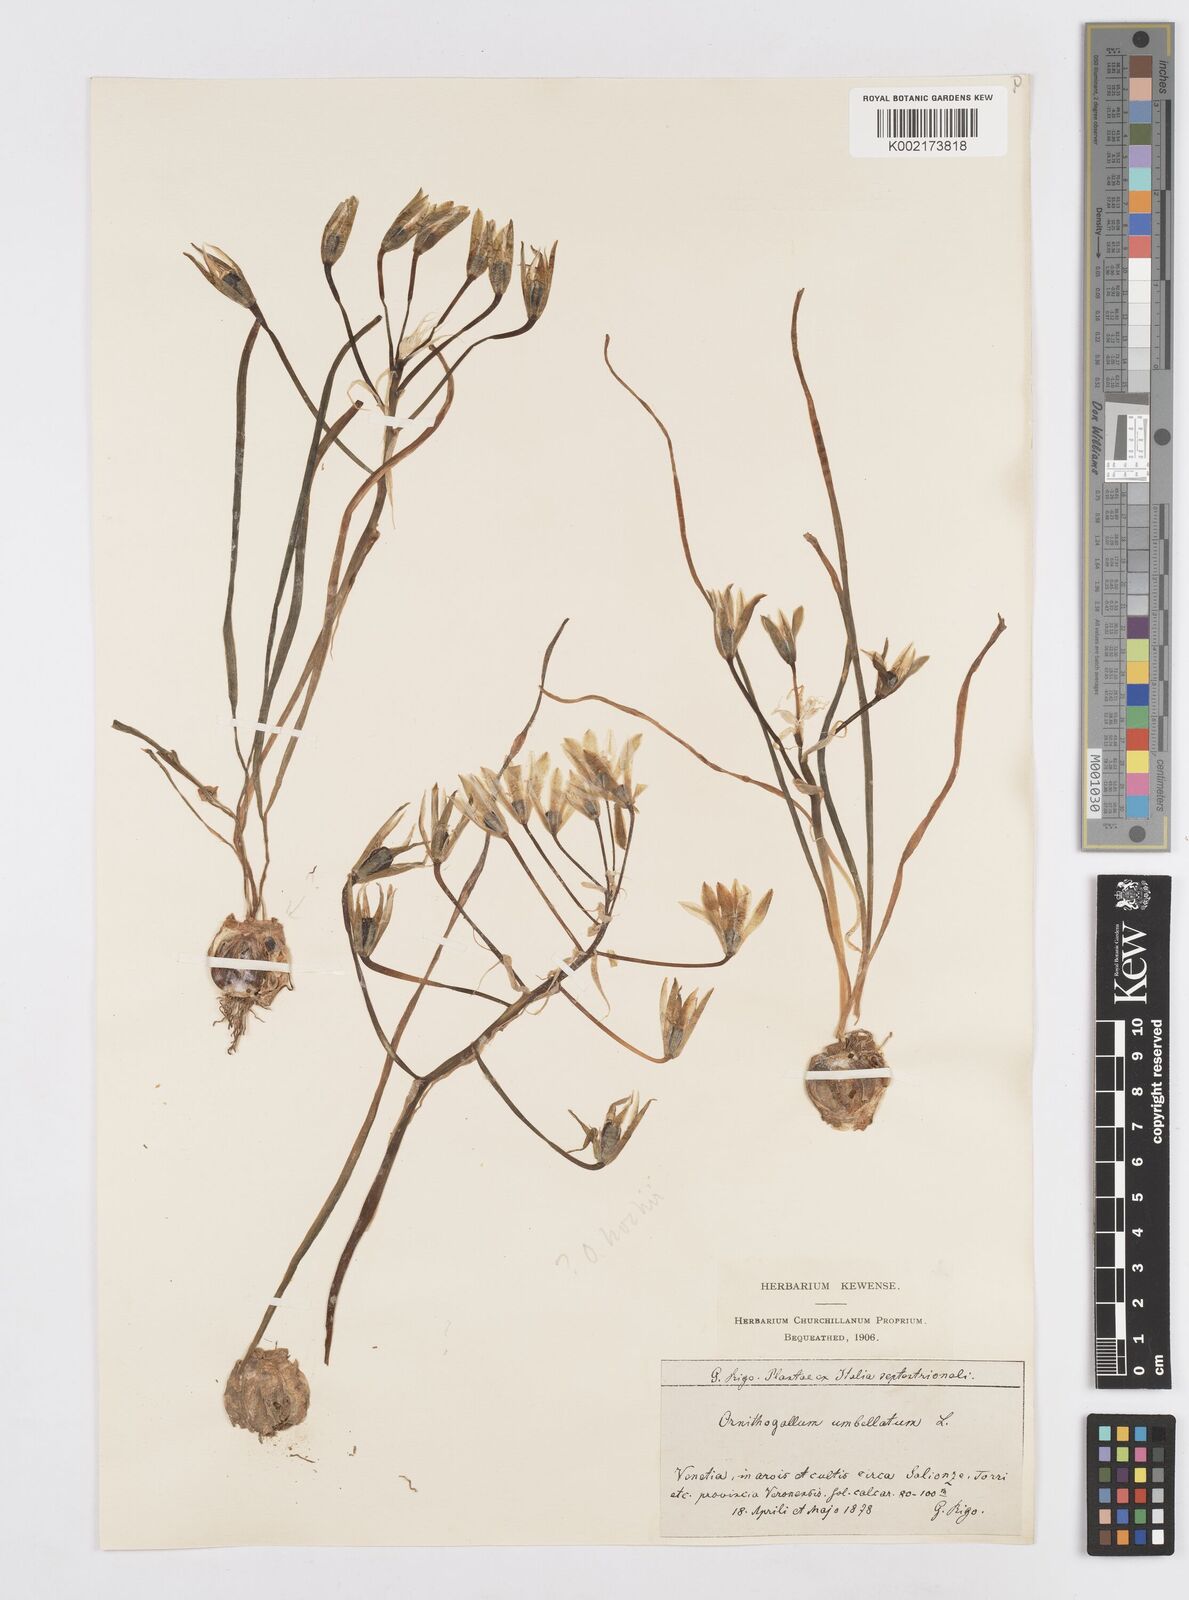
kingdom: Plantae
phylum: Tracheophyta
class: Liliopsida
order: Asparagales
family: Asparagaceae
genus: Ornithogalum
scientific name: Ornithogalum umbellatum
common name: Garden star-of-bethlehem
